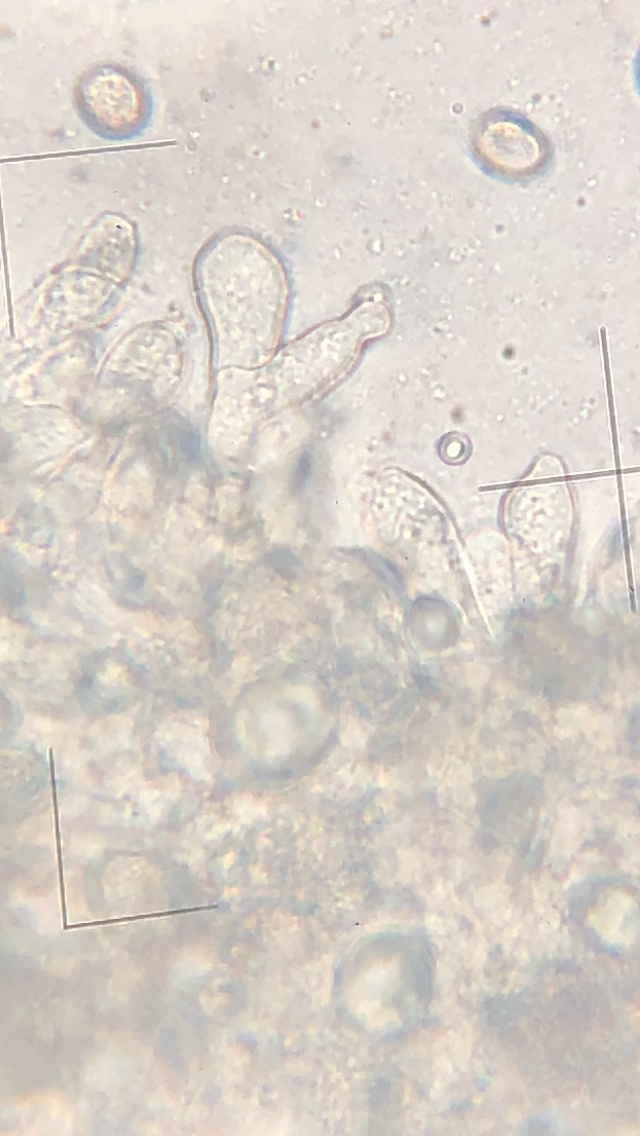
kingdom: Fungi
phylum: Basidiomycota
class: Agaricomycetes
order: Agaricales
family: Agaricaceae
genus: Macrolepiota
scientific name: Macrolepiota
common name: kæmpeparasolhat
